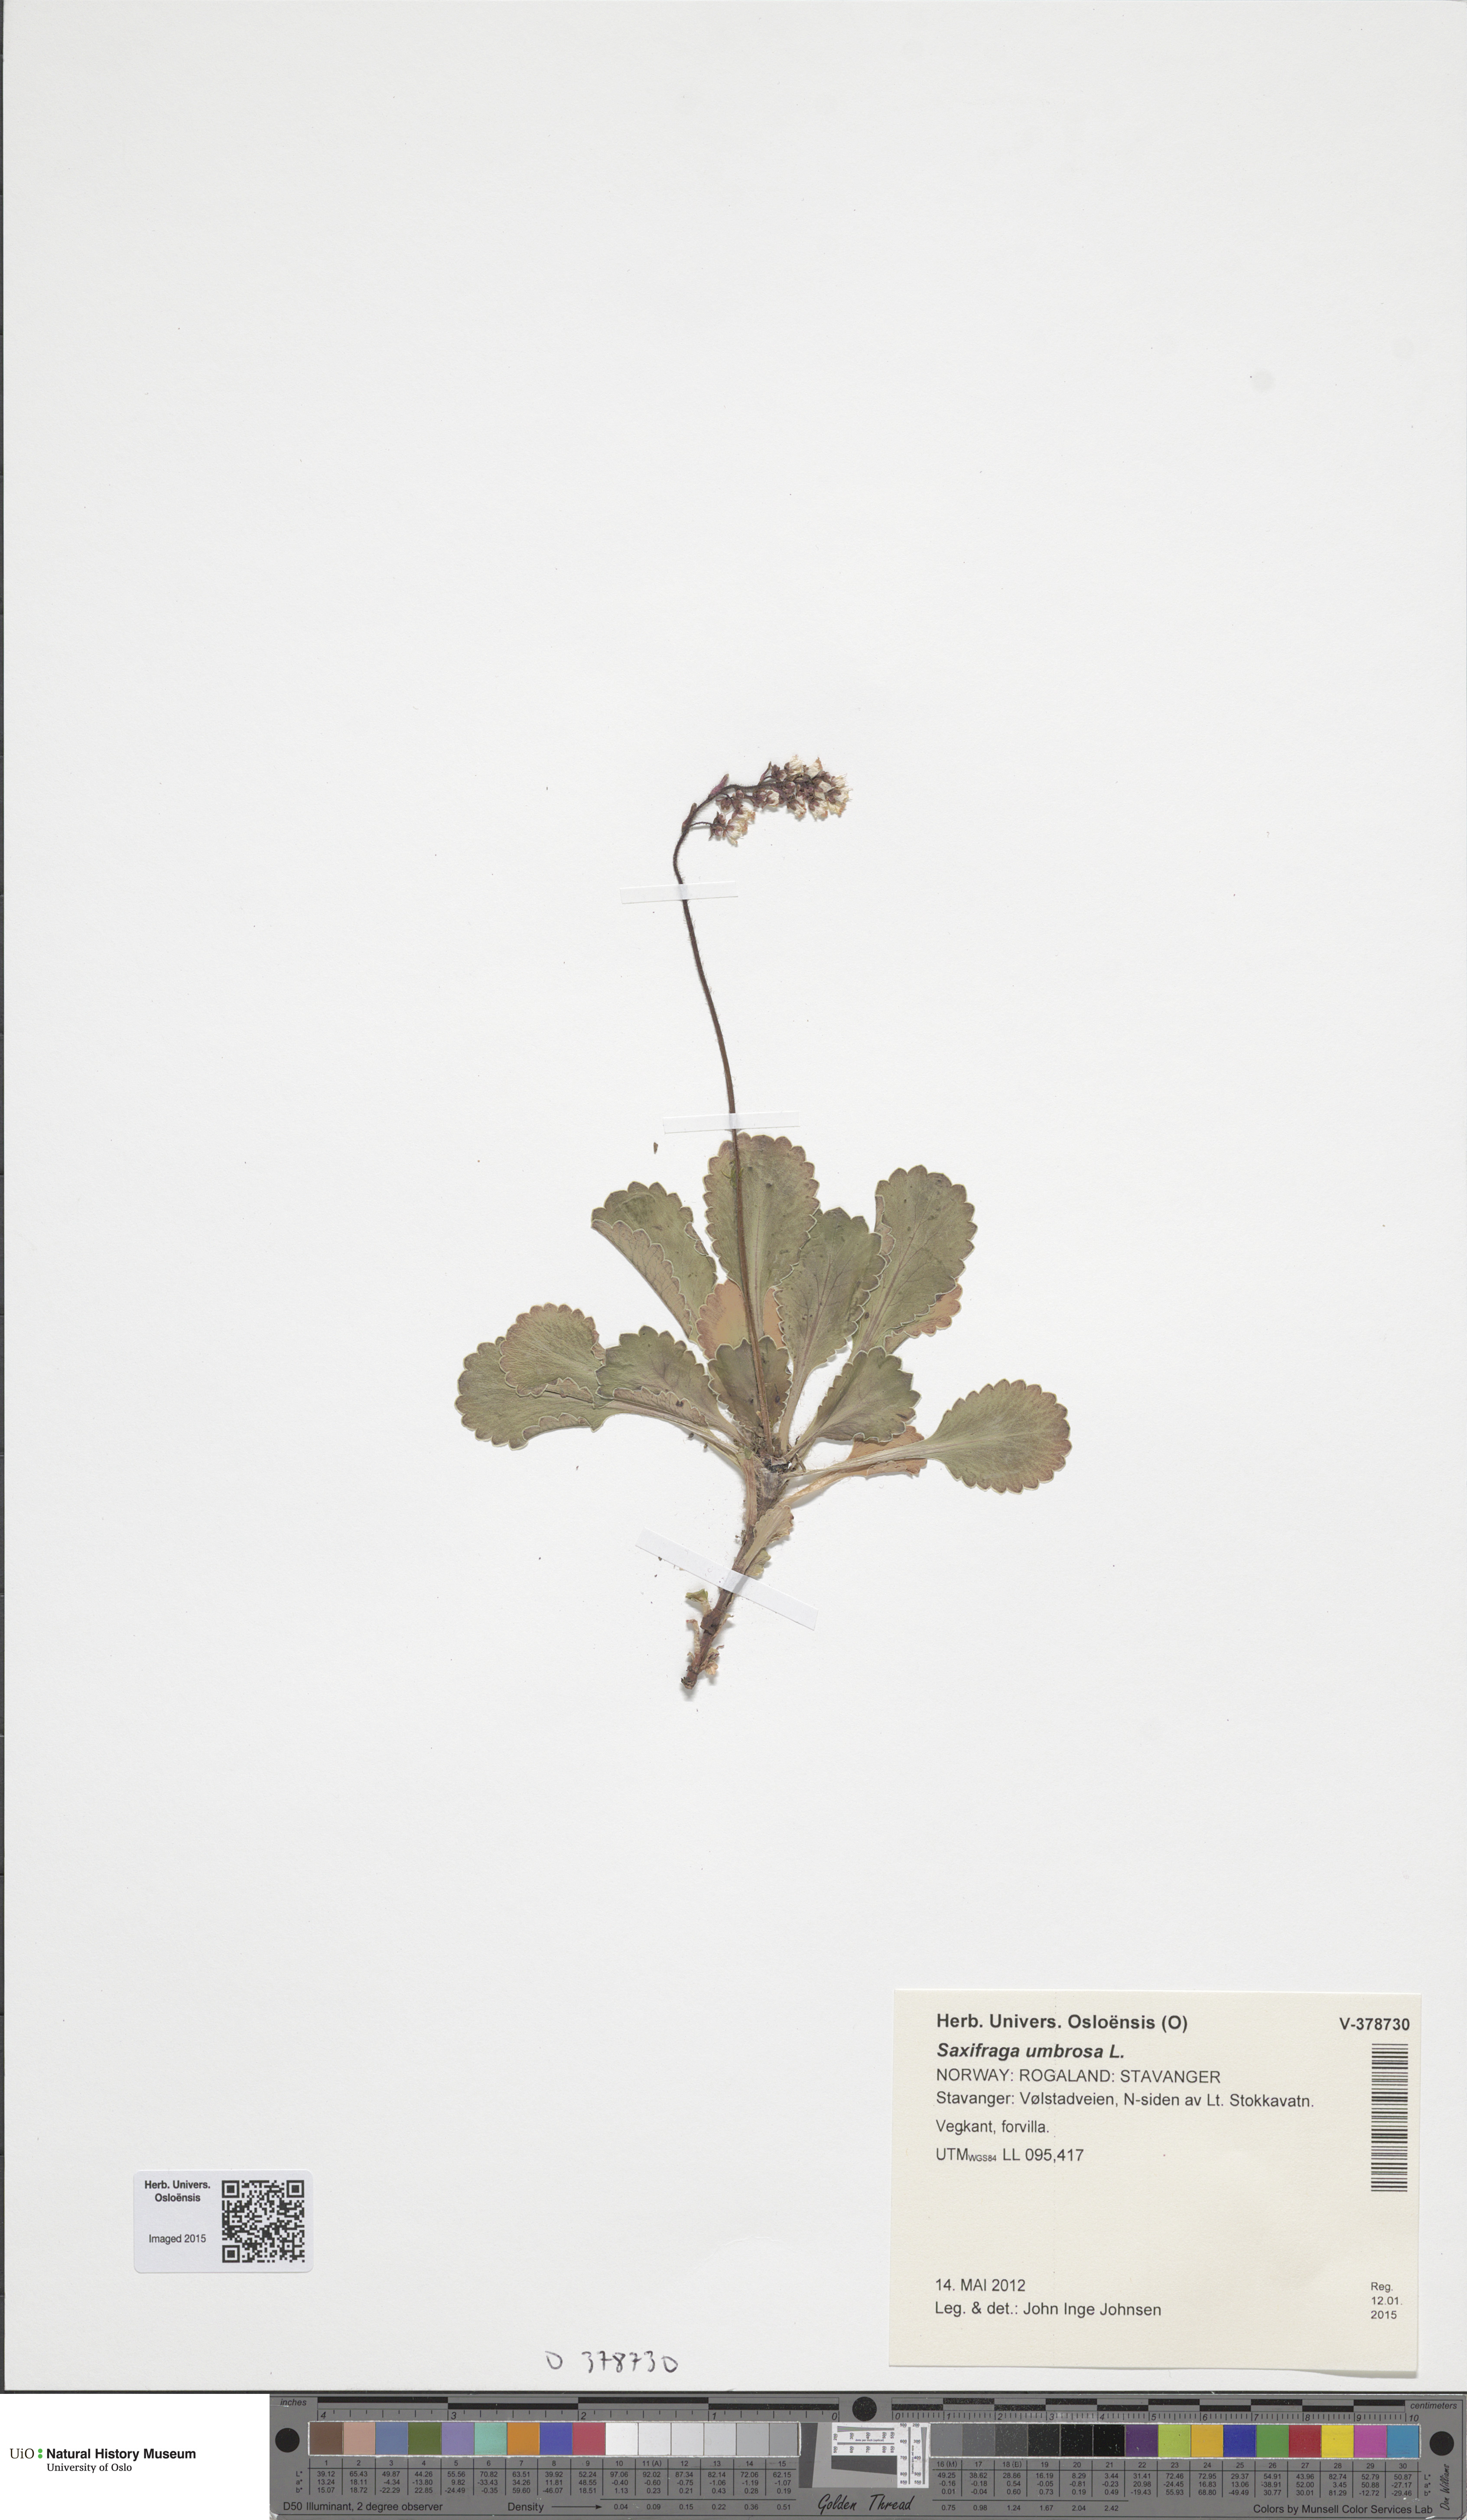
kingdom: Plantae
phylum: Tracheophyta
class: Magnoliopsida
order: Saxifragales
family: Saxifragaceae
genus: Saxifraga
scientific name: Saxifraga umbrosa
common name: Pyrenean saxifrage
